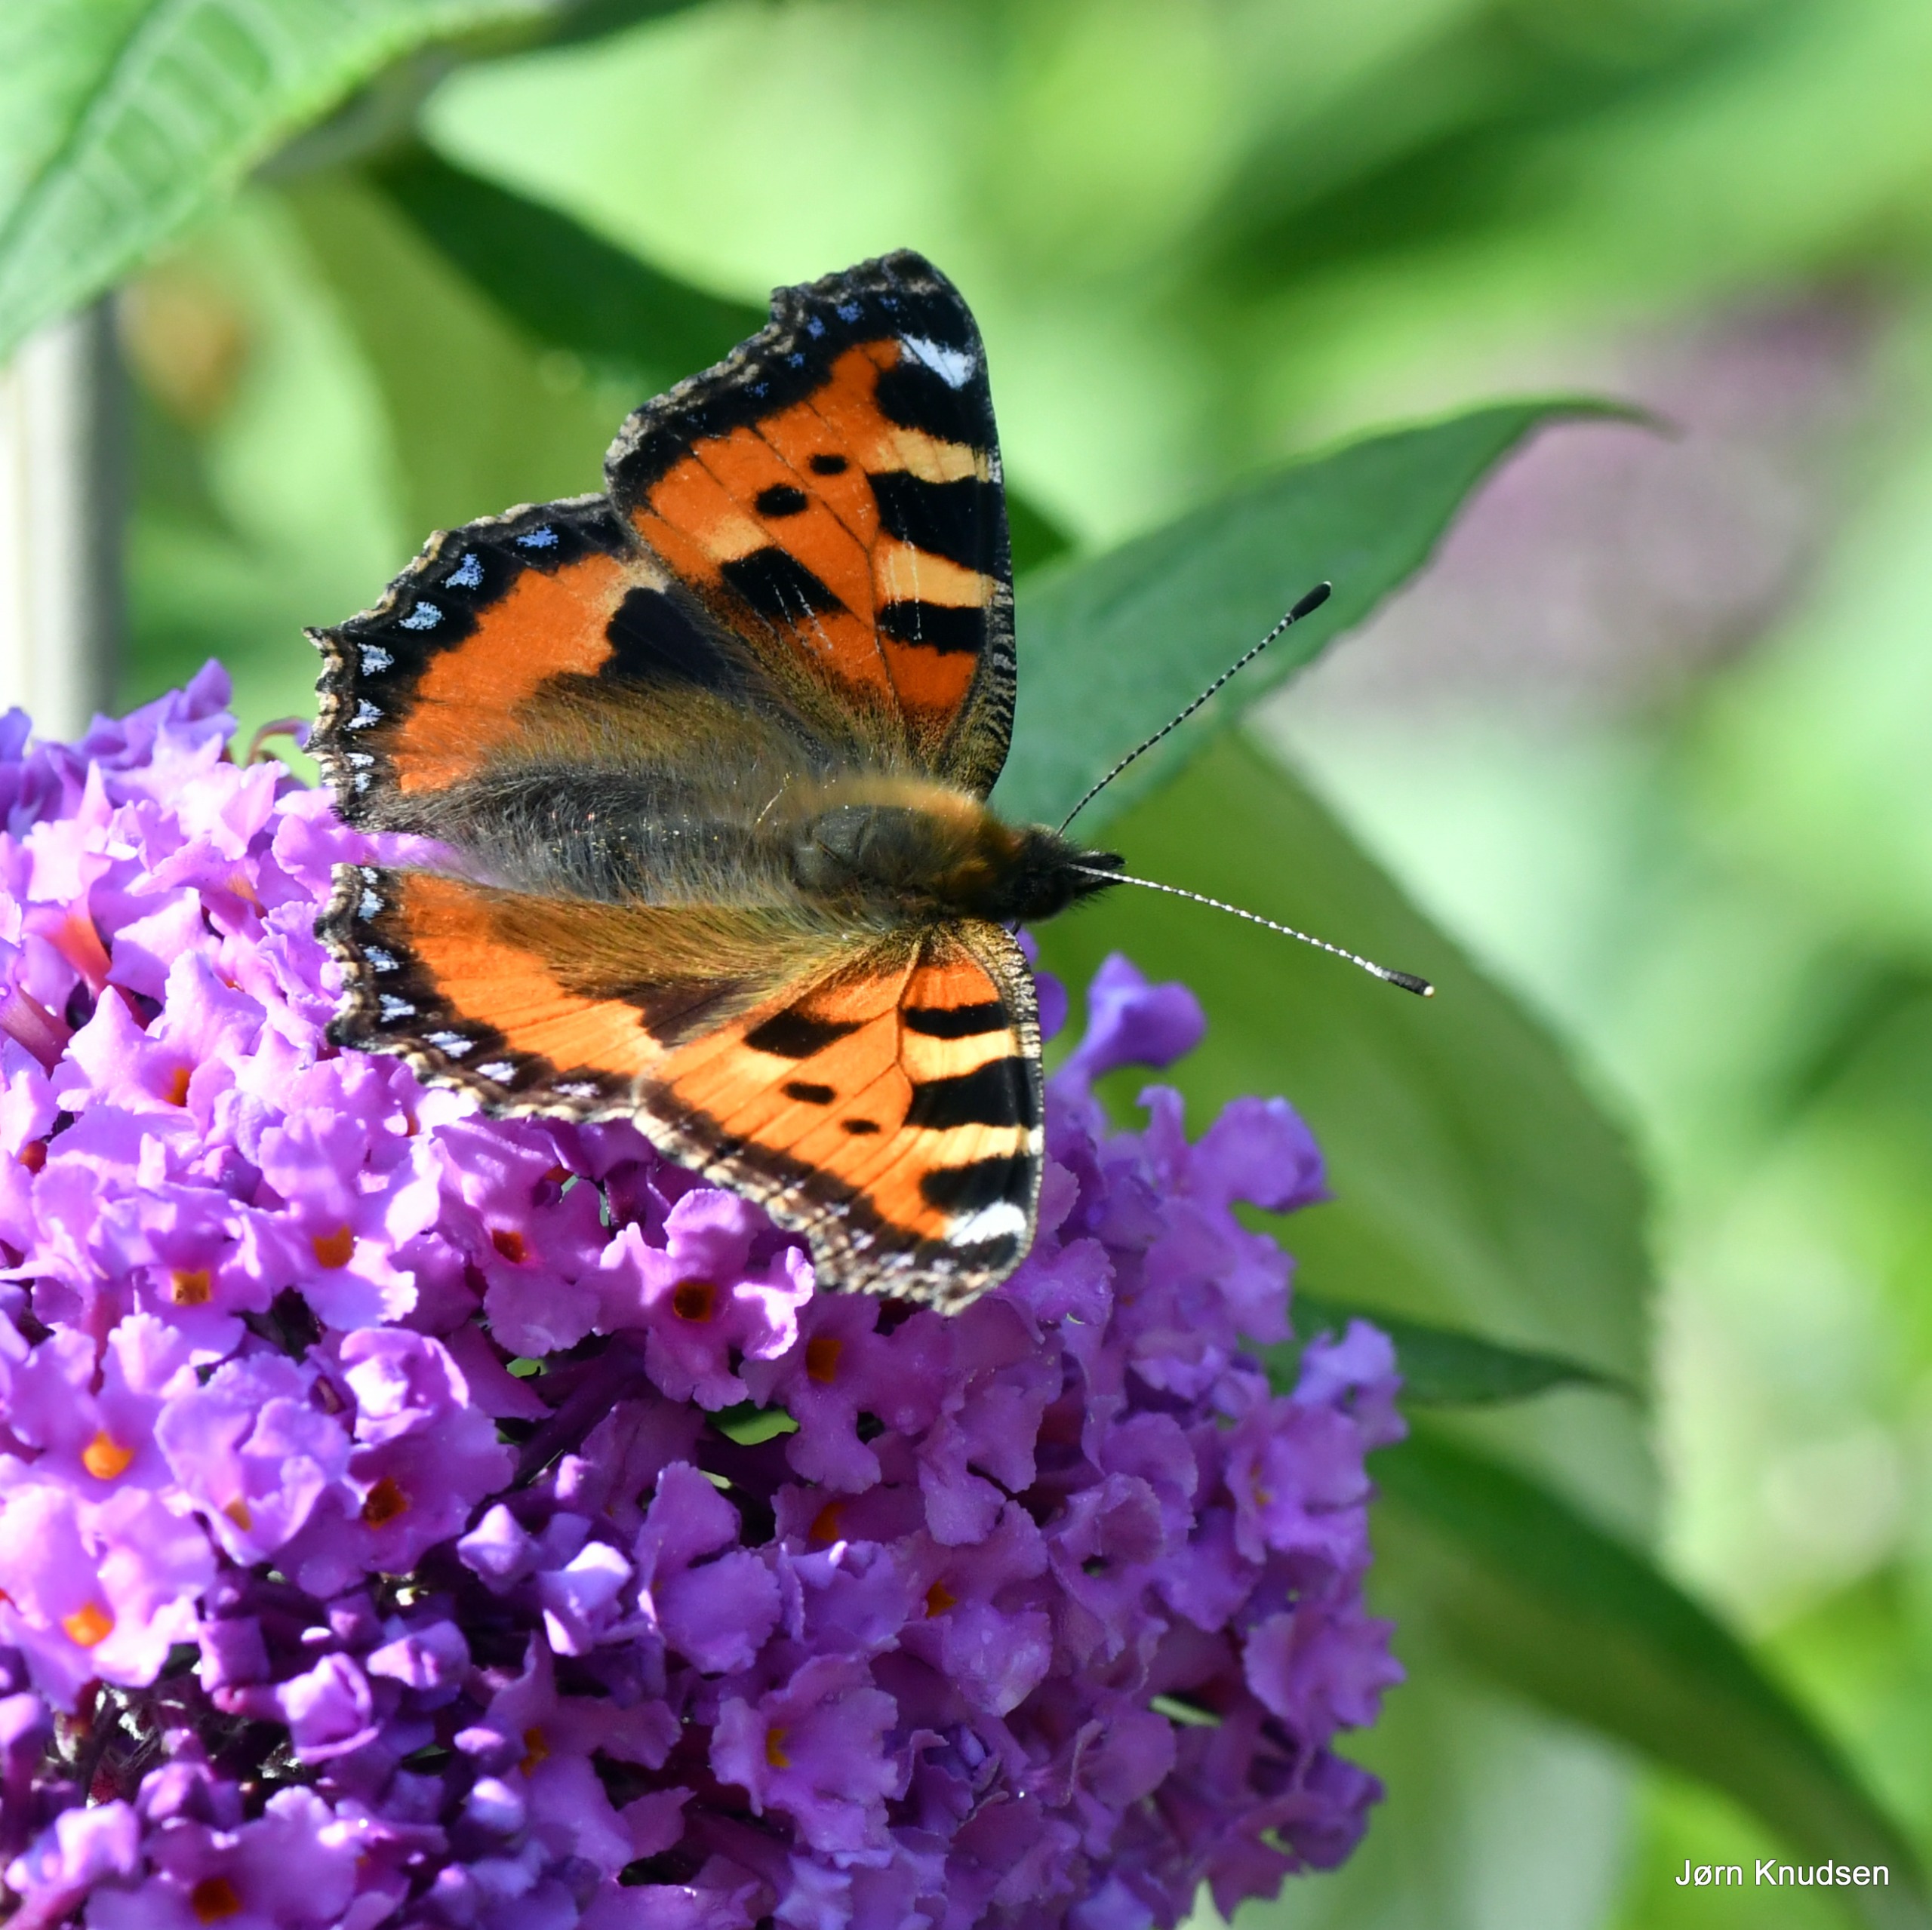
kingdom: Animalia
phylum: Arthropoda
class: Insecta
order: Lepidoptera
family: Nymphalidae
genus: Aglais
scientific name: Aglais urticae
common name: Nældens takvinge
